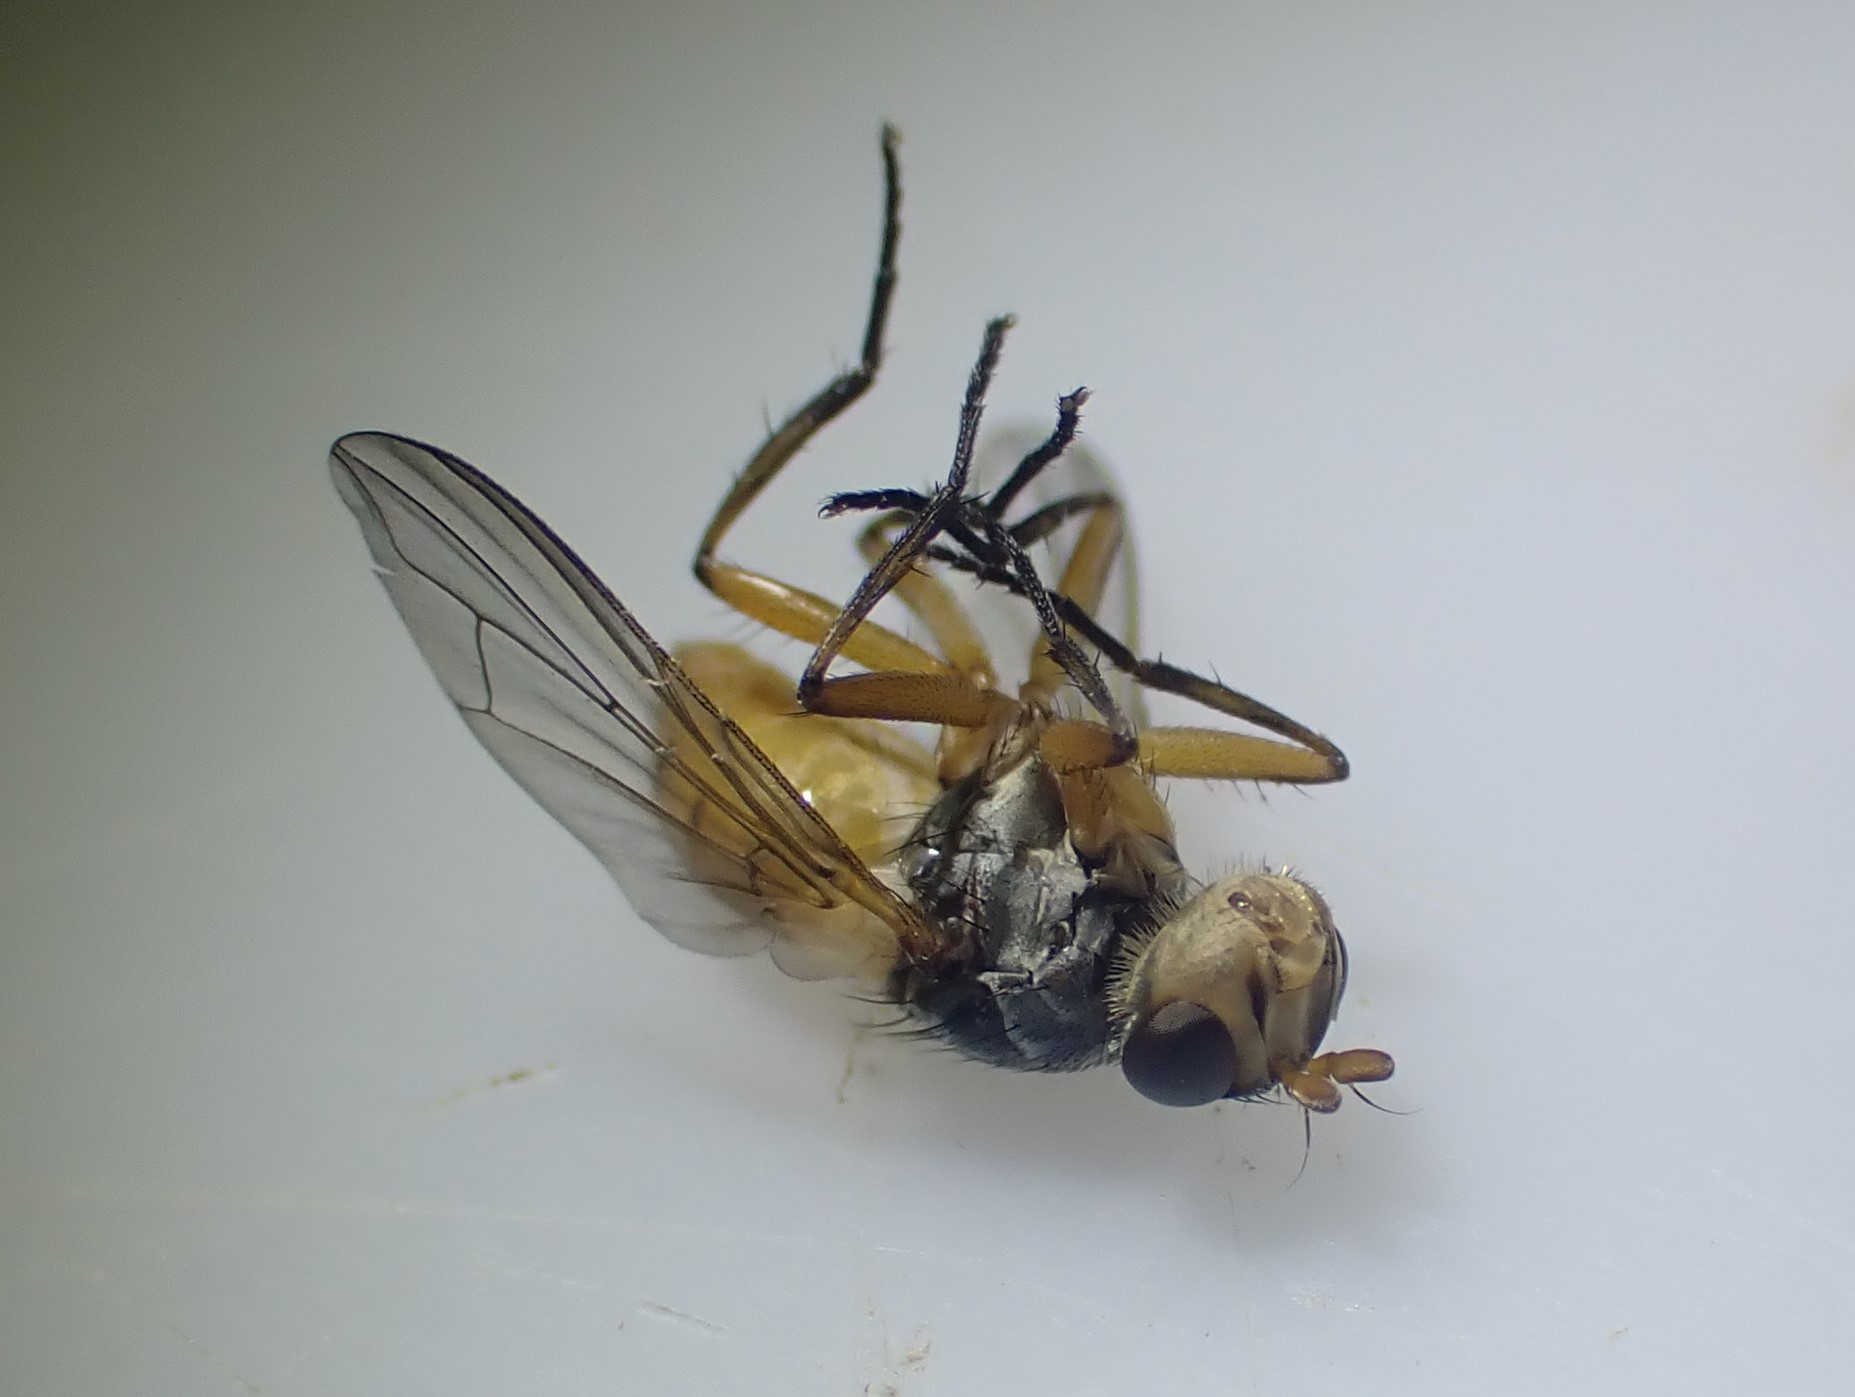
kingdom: Animalia
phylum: Arthropoda
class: Insecta
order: Diptera
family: Tachinidae
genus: Subclytia
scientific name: Subclytia rotundiventris
